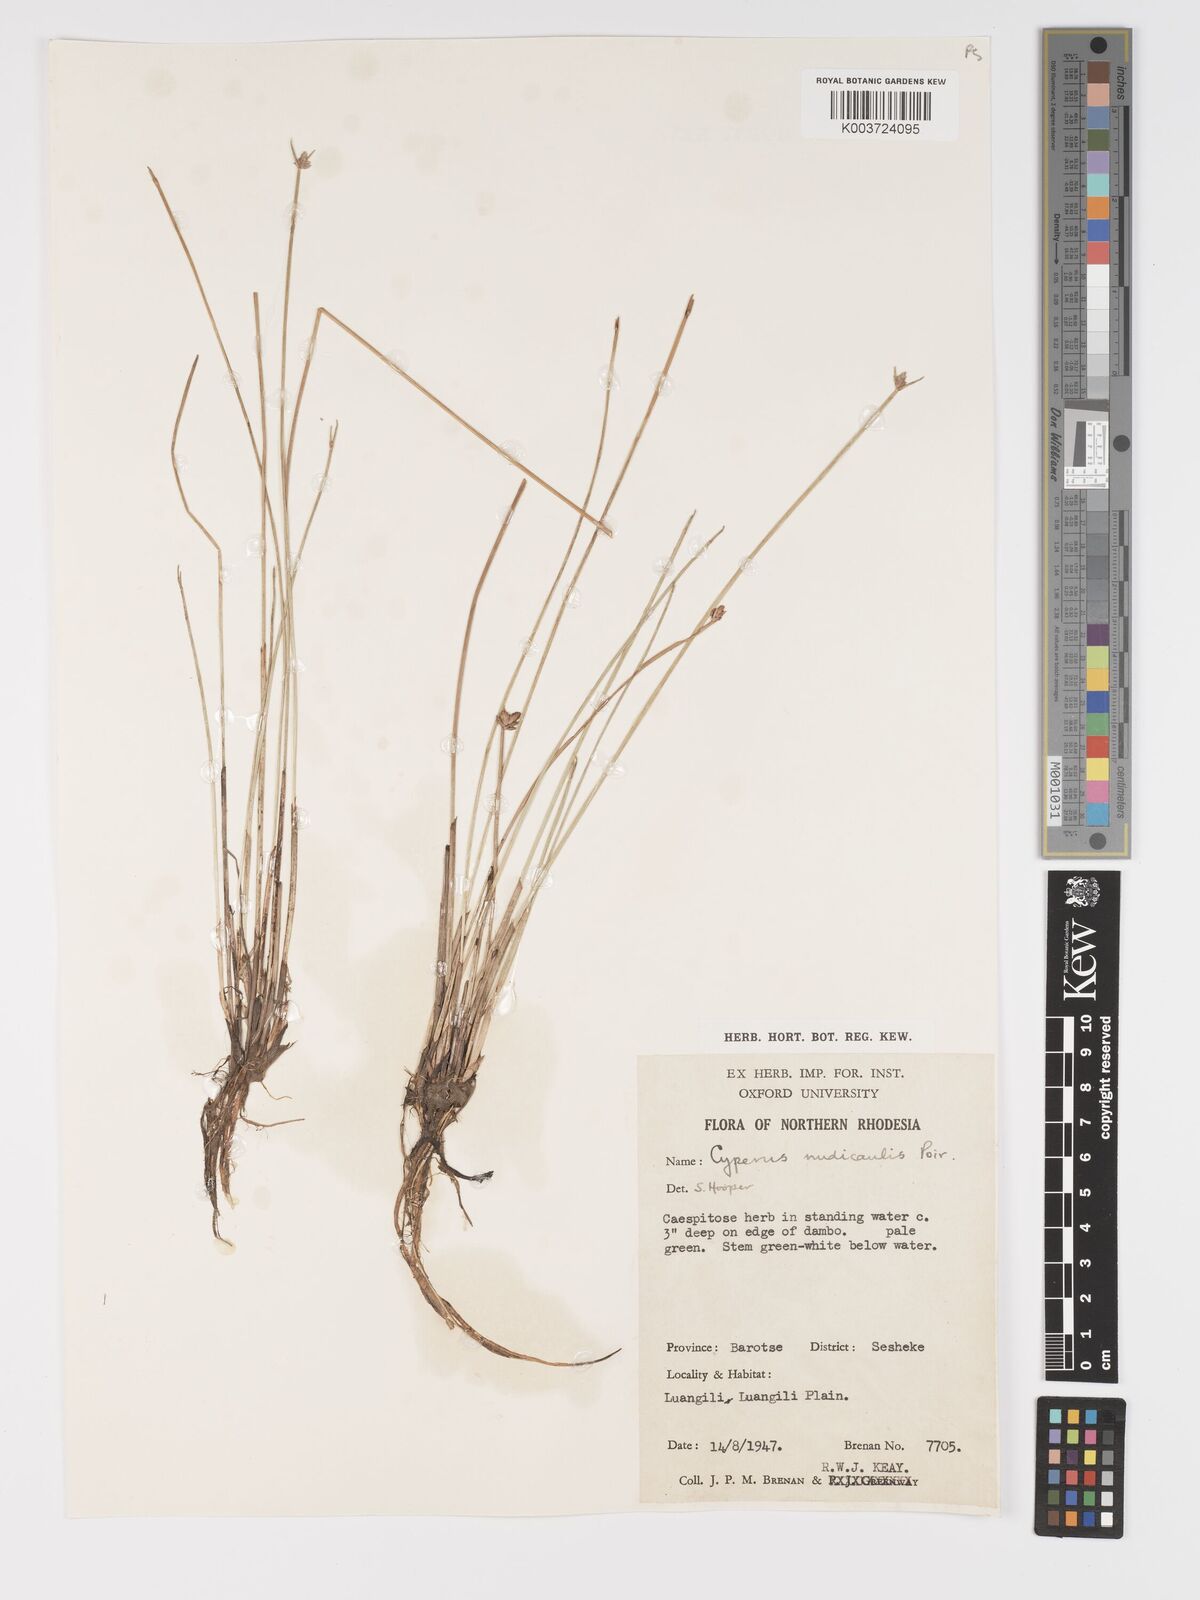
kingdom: Plantae
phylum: Tracheophyta
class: Liliopsida
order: Poales
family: Cyperaceae
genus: Cyperus
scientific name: Cyperus compressus
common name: Poorland flatsedge
